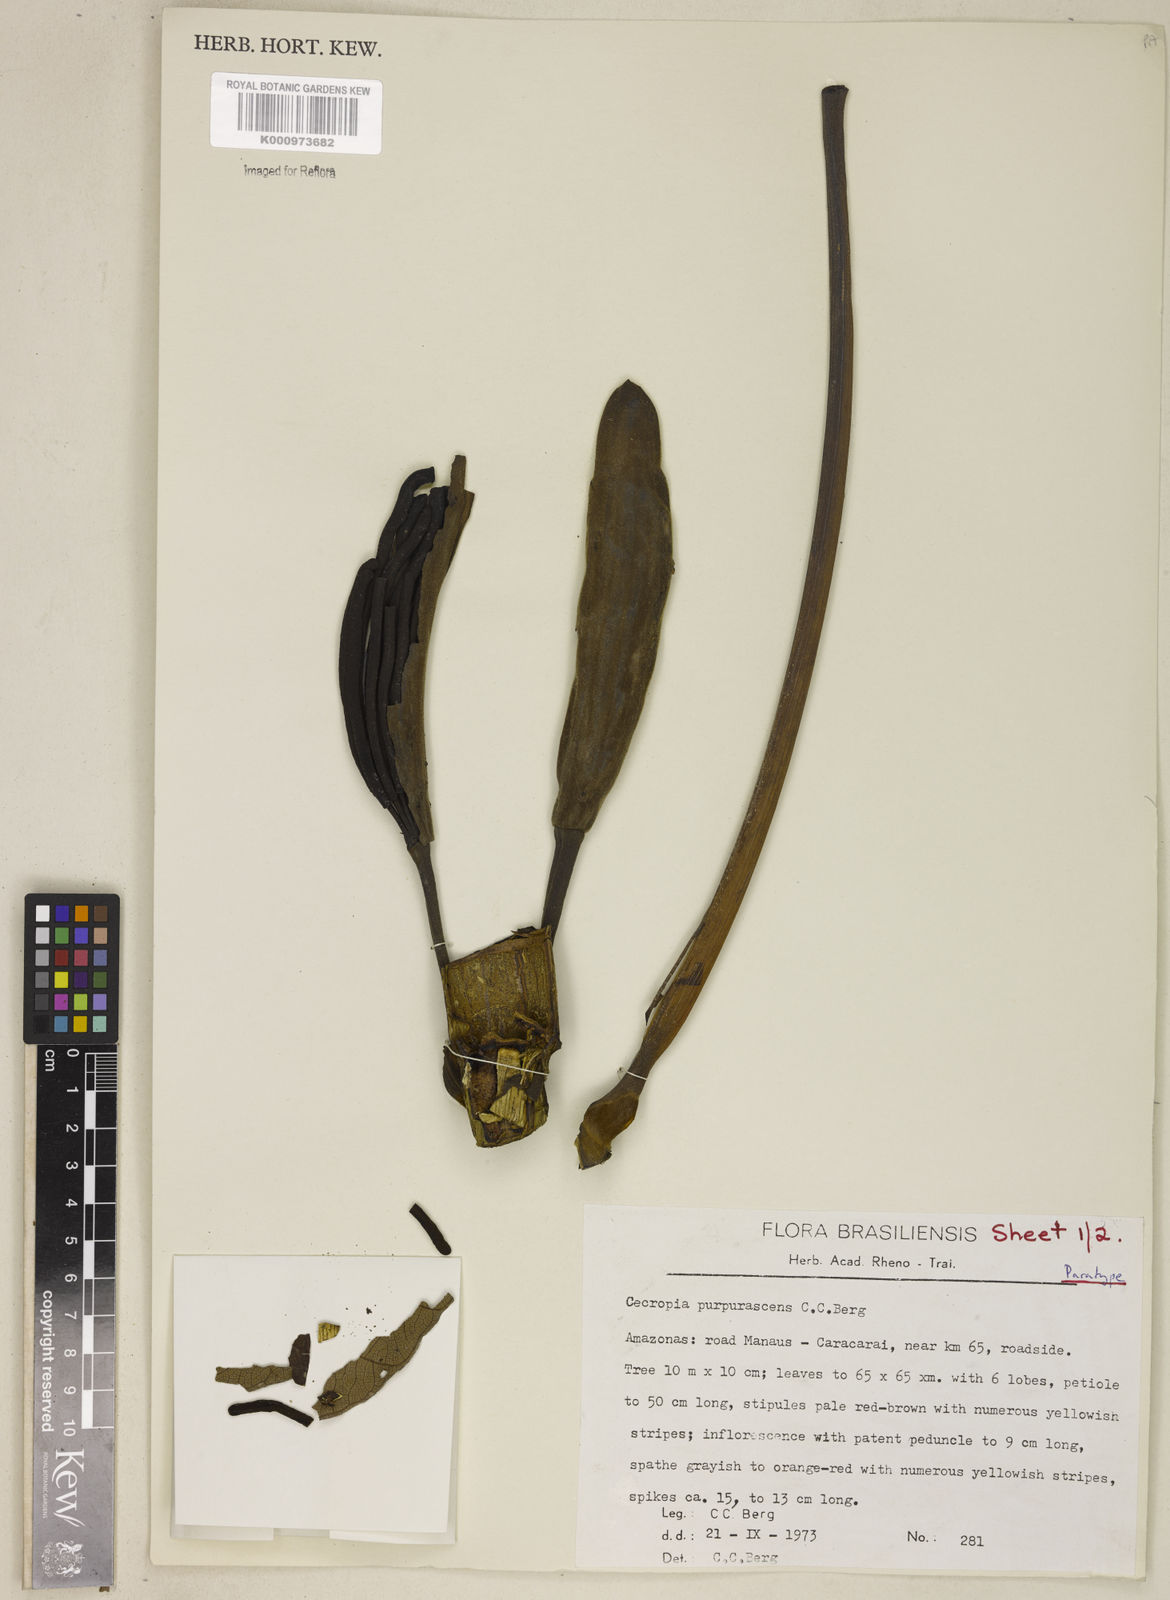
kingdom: Plantae
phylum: Tracheophyta
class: Magnoliopsida
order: Rosales
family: Urticaceae
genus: Cecropia
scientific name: Cecropia purpurascens
